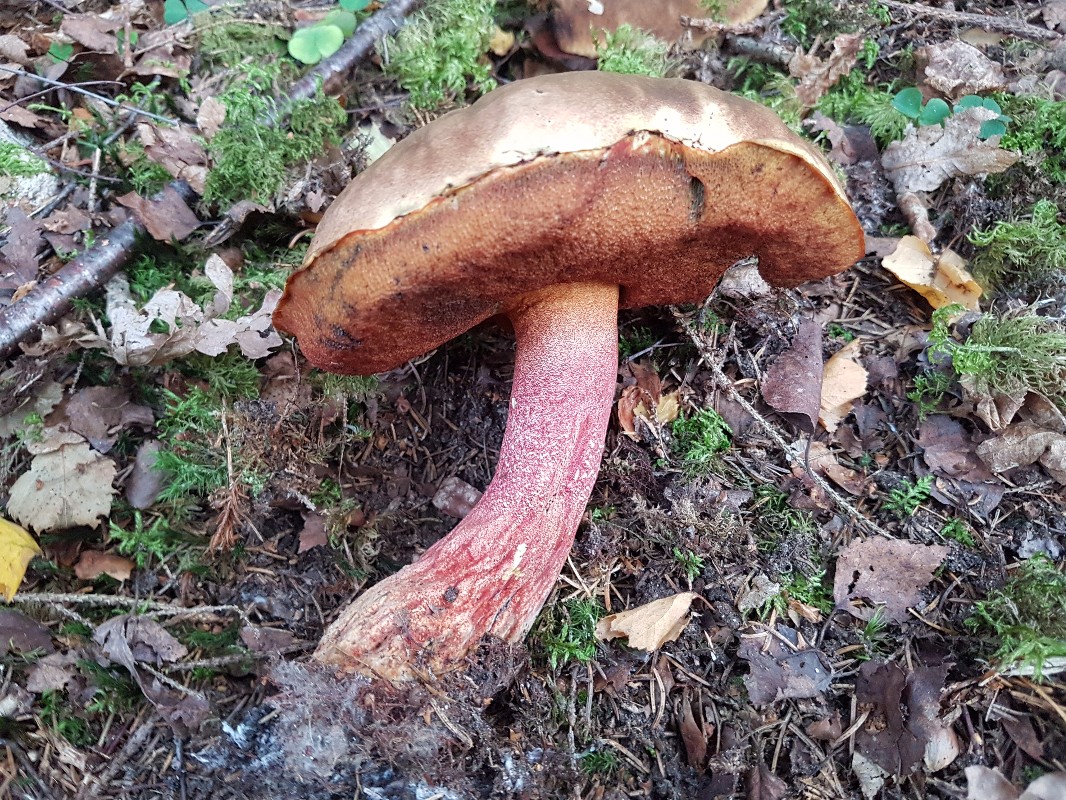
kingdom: Fungi
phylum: Basidiomycota
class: Agaricomycetes
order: Boletales
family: Boletaceae
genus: Neoboletus
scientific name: Neoboletus erythropus
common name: punktstokket indigorørhat
